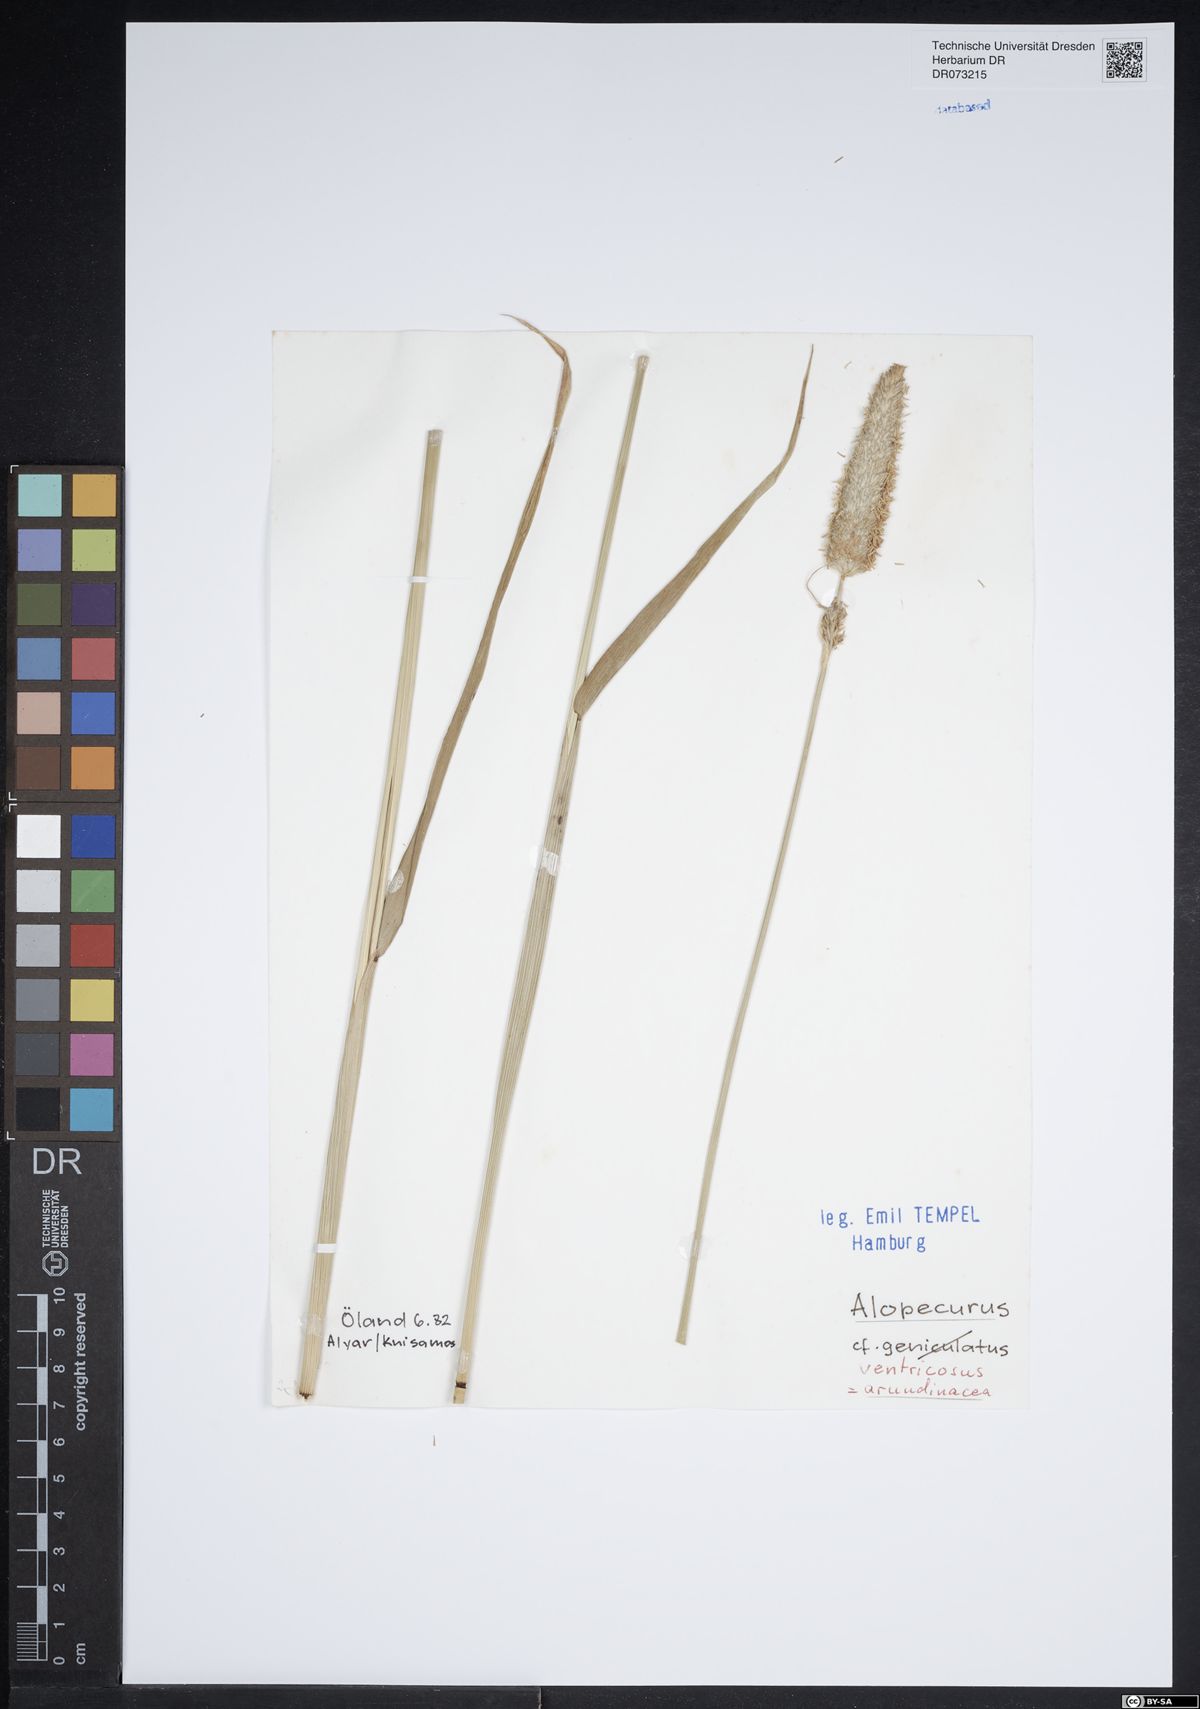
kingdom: Plantae
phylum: Tracheophyta
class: Liliopsida
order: Poales
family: Poaceae
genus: Alopecurus
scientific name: Alopecurus arundinaceus
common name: Creeping meadow foxtail
